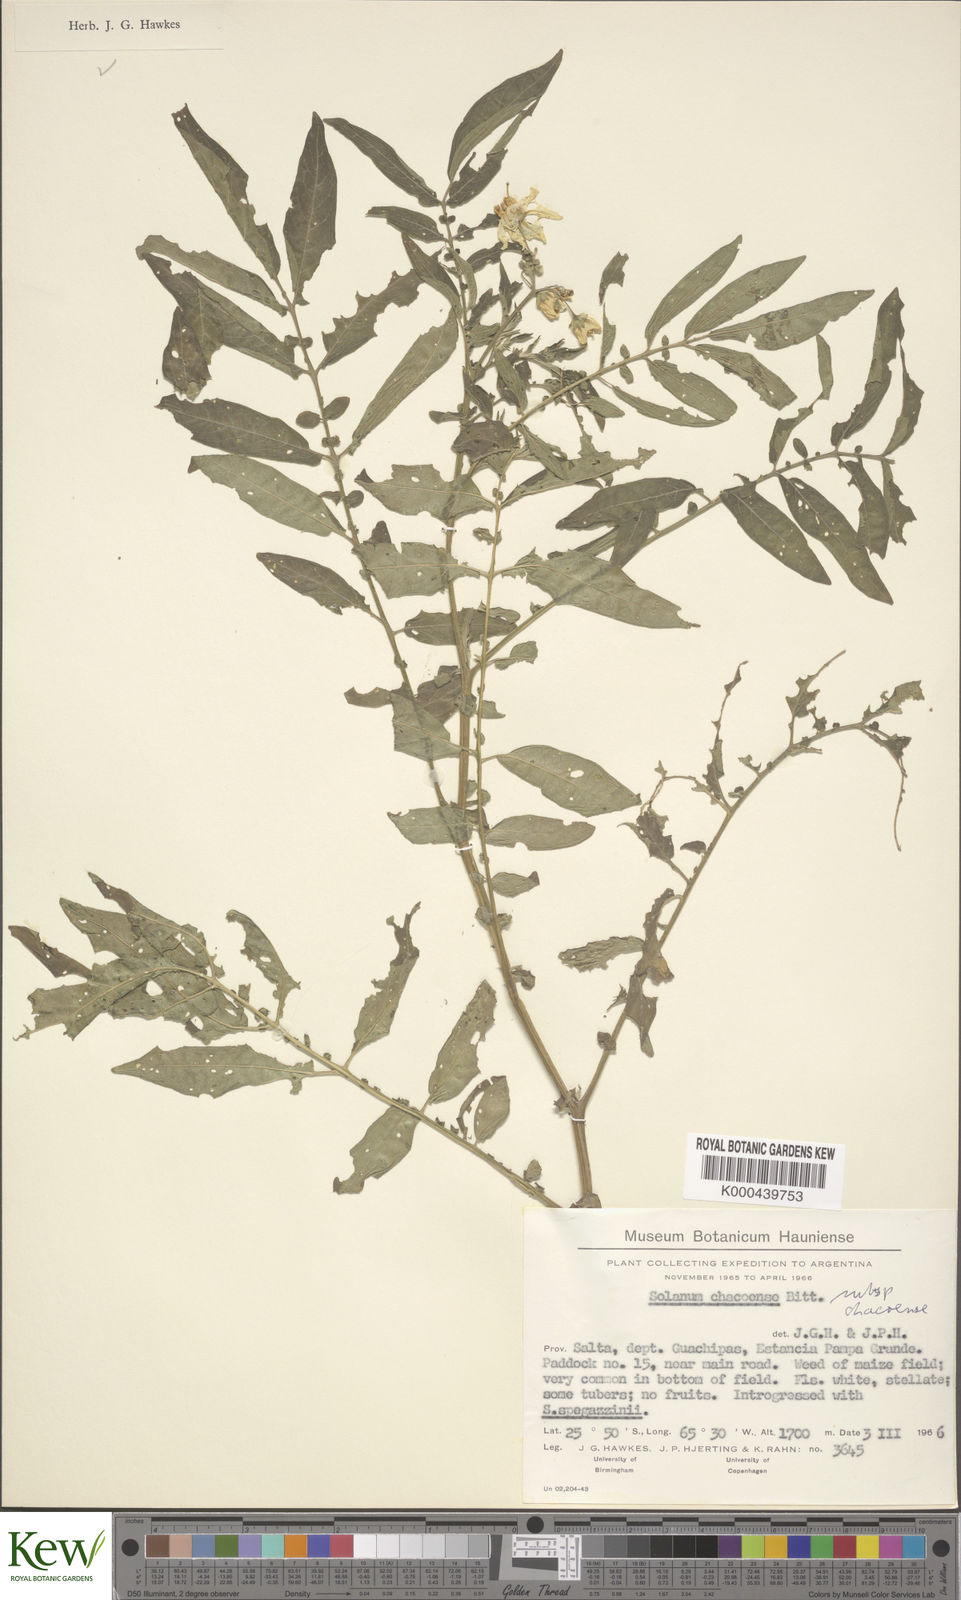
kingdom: Plantae
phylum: Tracheophyta
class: Magnoliopsida
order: Solanales
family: Solanaceae
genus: Solanum
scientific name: Solanum chacoense
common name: Chaco potato
